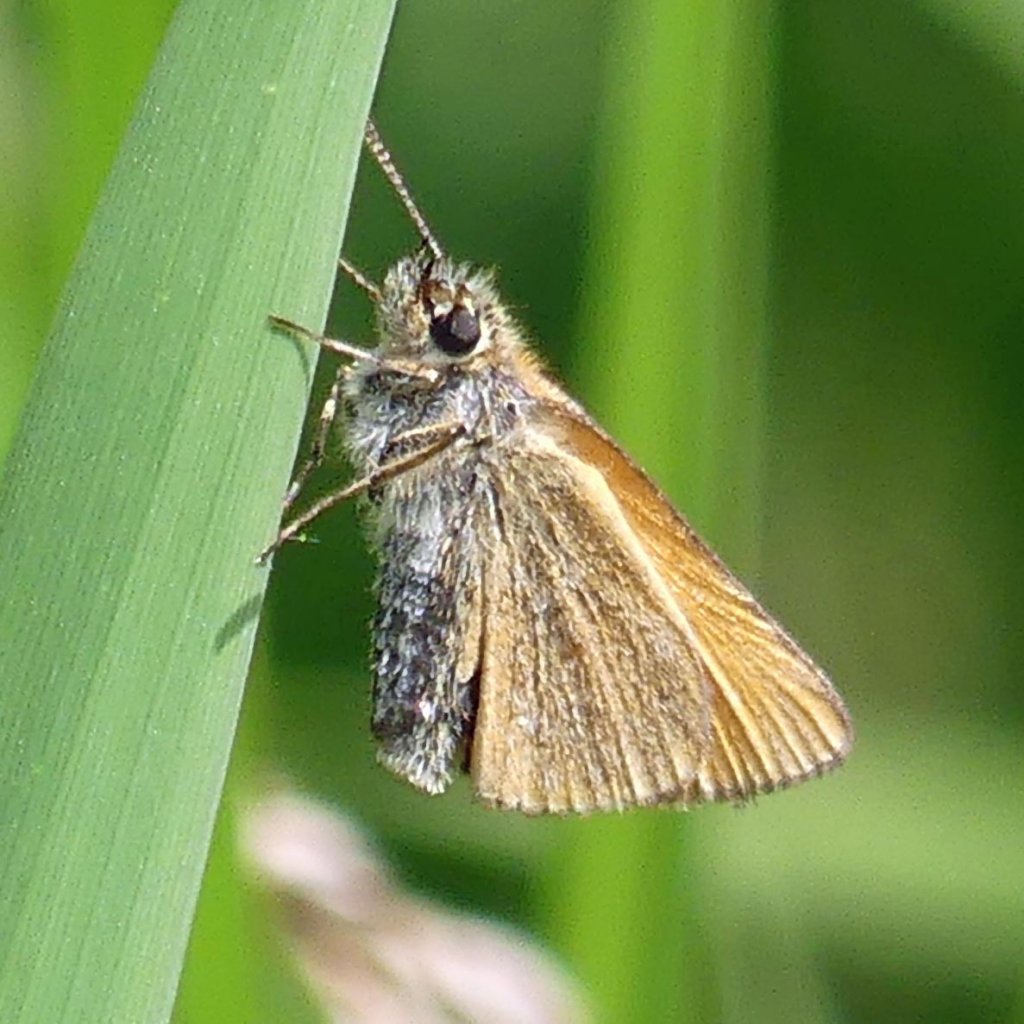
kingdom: Animalia
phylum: Arthropoda
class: Insecta
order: Lepidoptera
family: Hesperiidae
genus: Thymelicus
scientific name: Thymelicus lineola
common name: European Skipper
